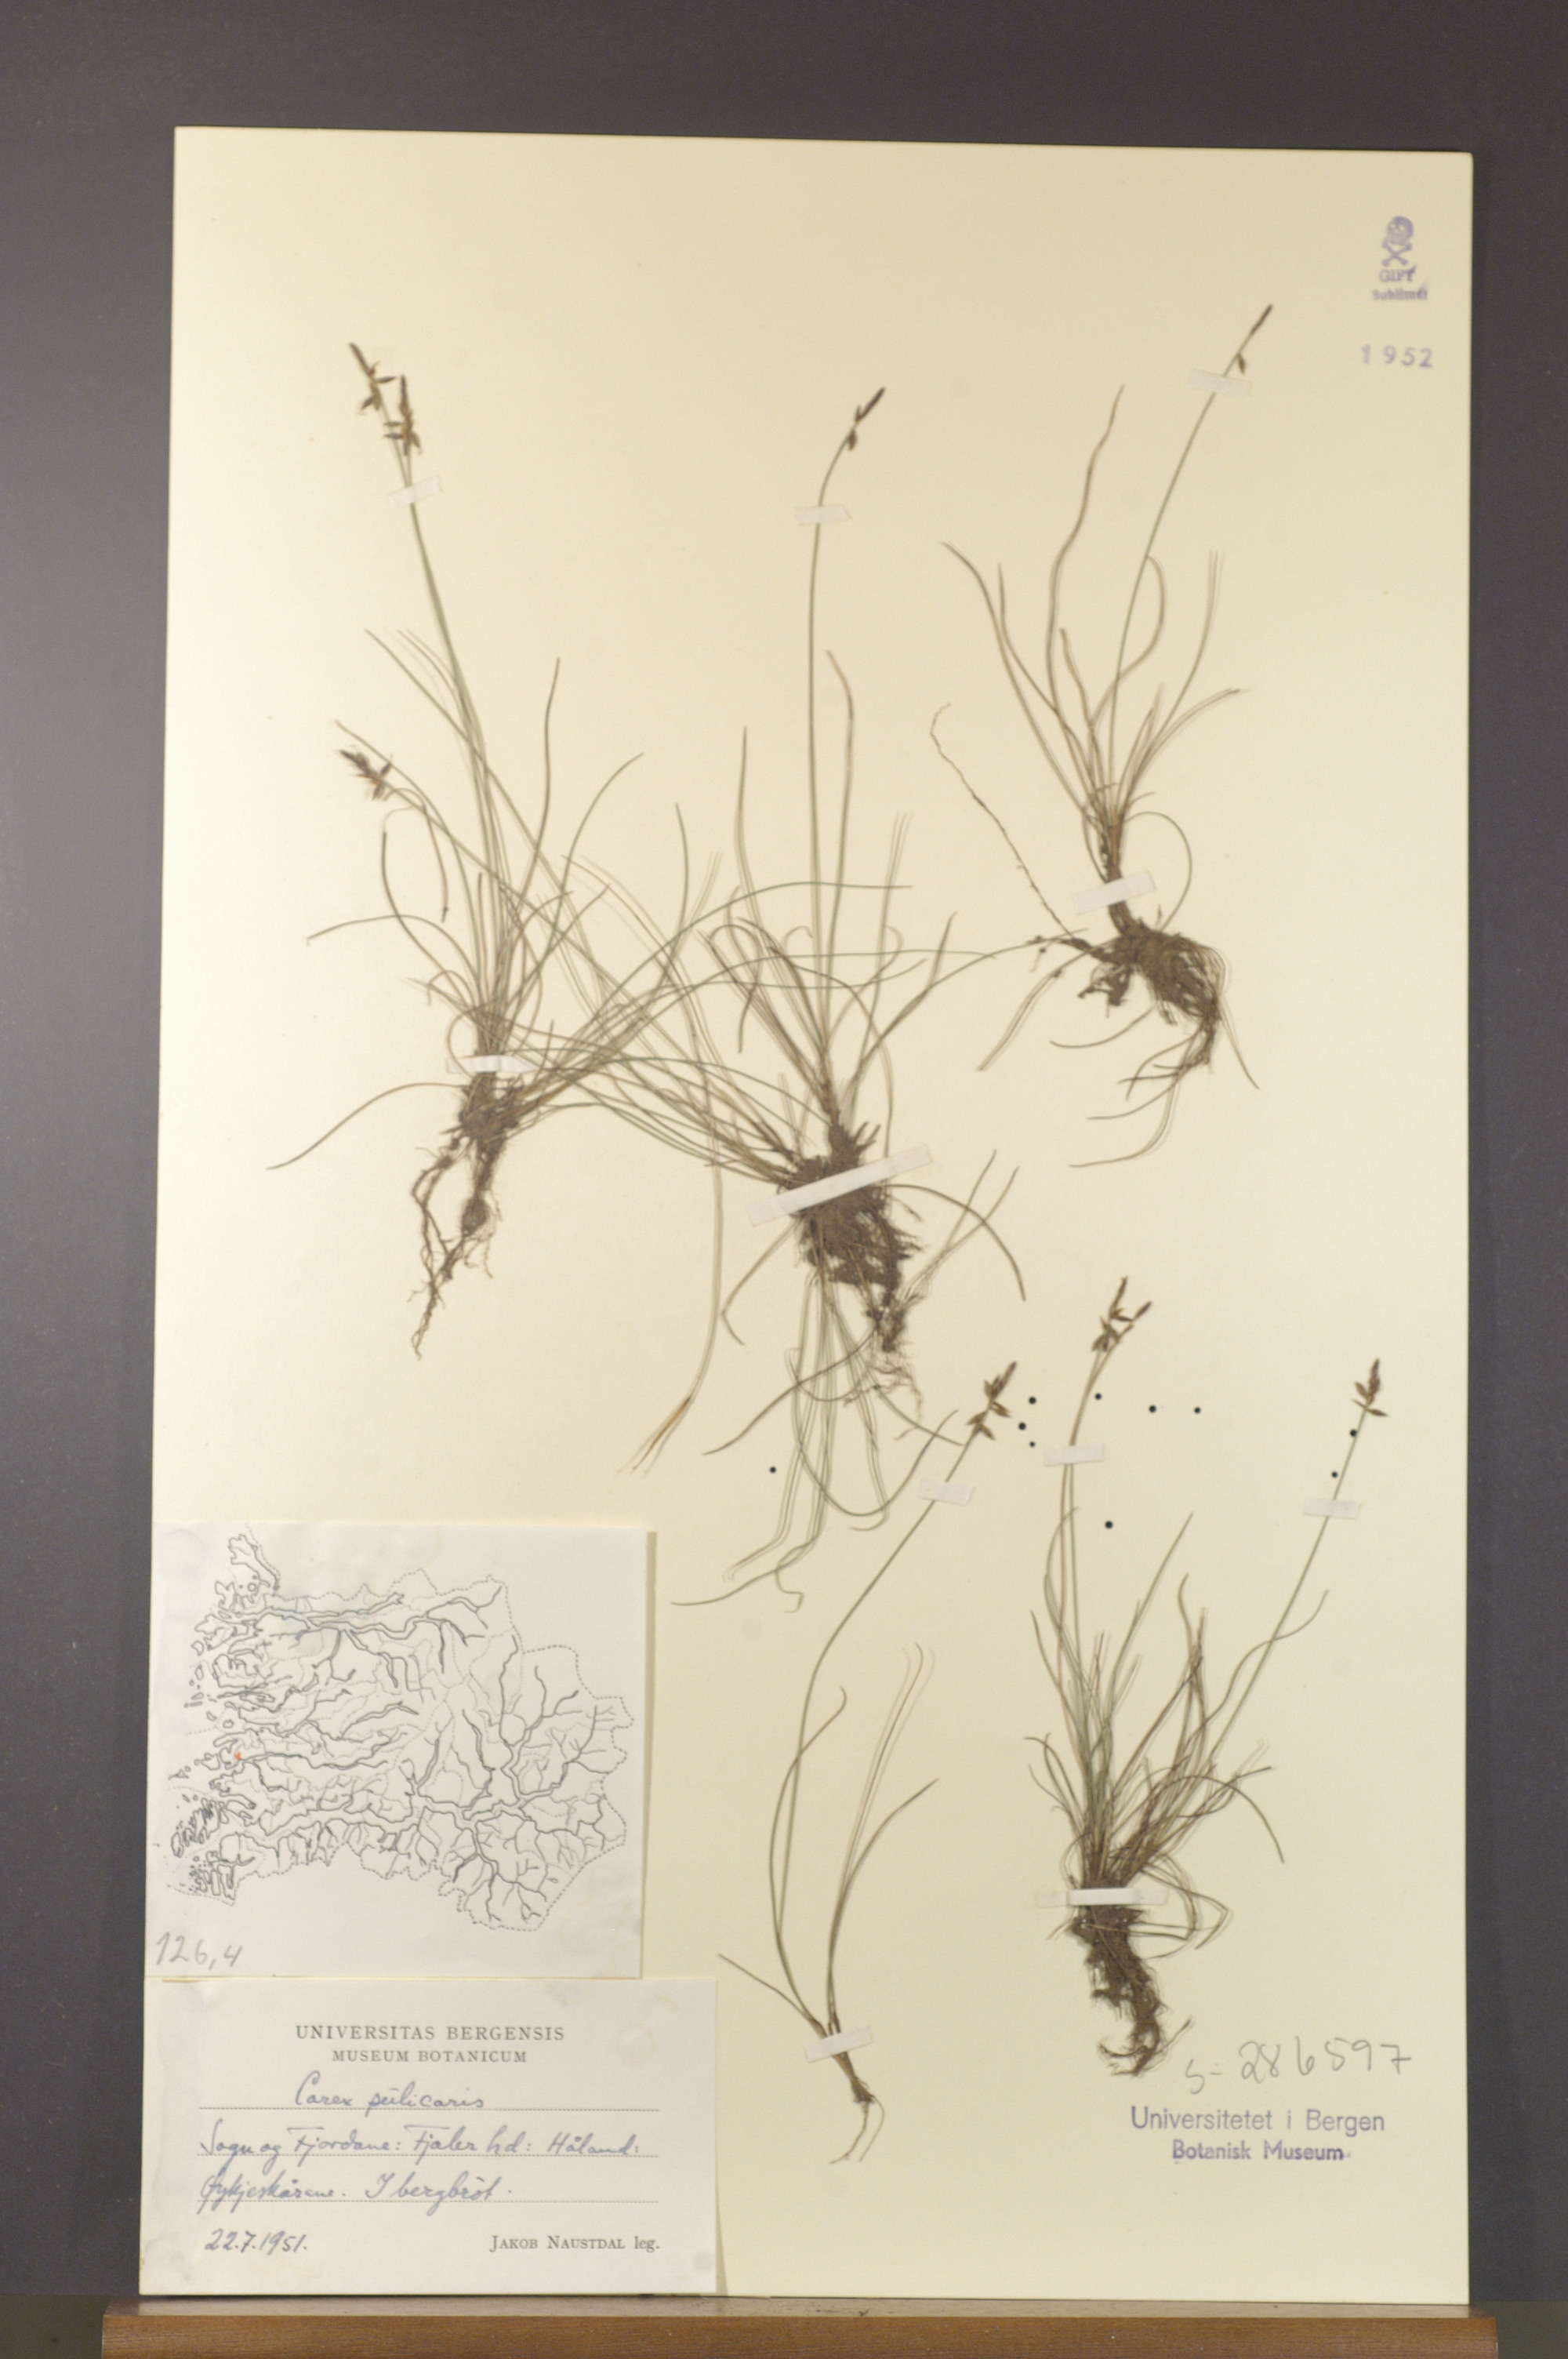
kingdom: Plantae
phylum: Tracheophyta
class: Liliopsida
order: Poales
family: Cyperaceae
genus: Carex
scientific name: Carex pulicaris
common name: Flea sedge
